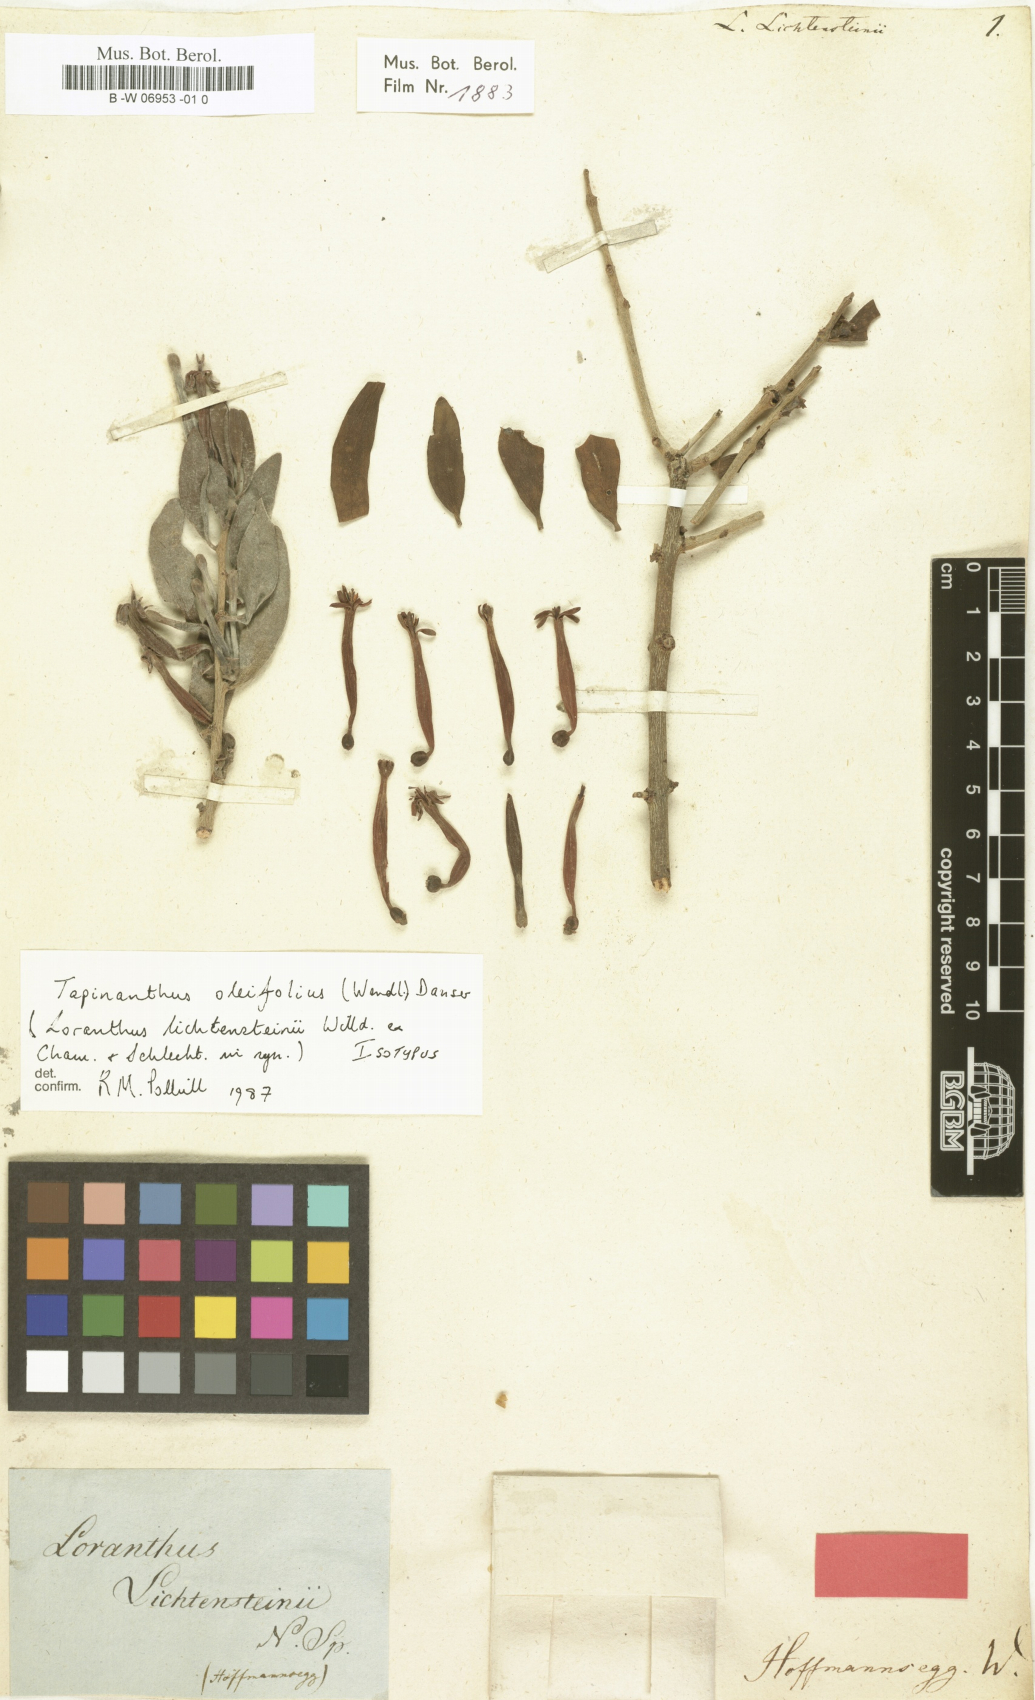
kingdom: Plantae
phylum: Tracheophyta
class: Magnoliopsida
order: Santalales
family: Loranthaceae
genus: Tapinanthus
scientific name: Tapinanthus oleifolius
